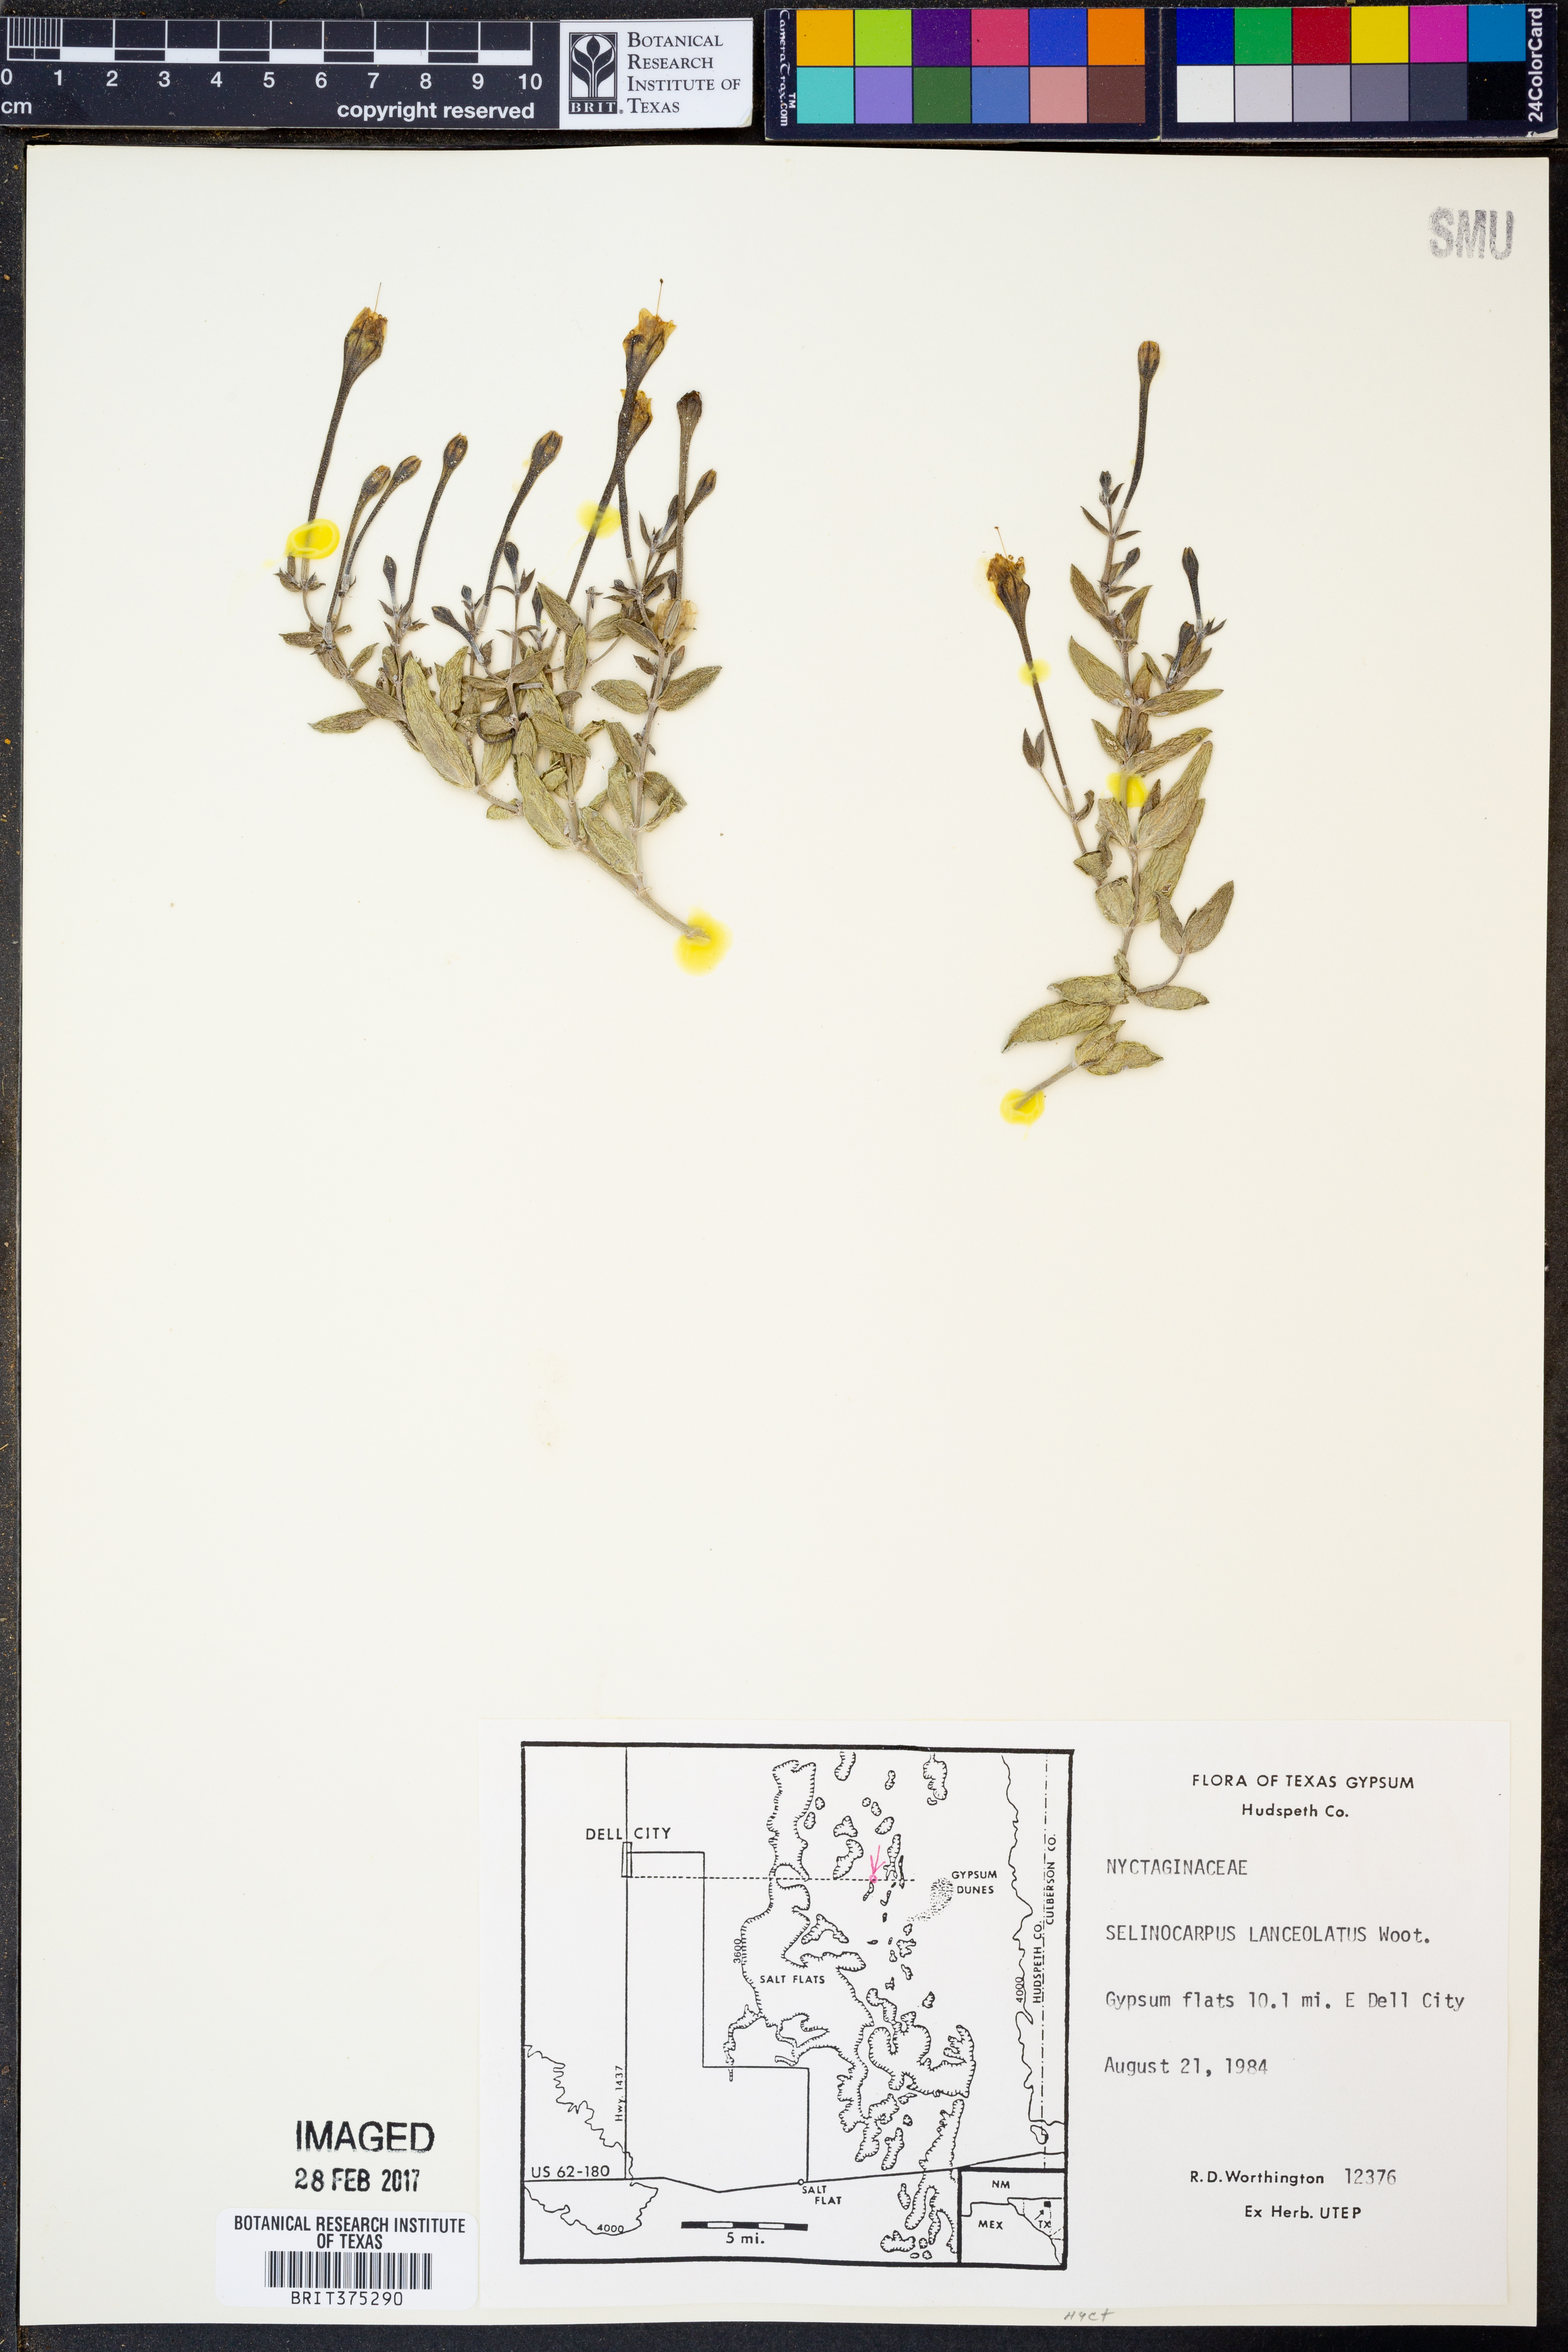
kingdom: Plantae
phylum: Tracheophyta
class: Magnoliopsida
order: Caryophyllales
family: Nyctaginaceae
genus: Acleisanthes
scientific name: Acleisanthes lanceolata
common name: Gypsum moonpod
